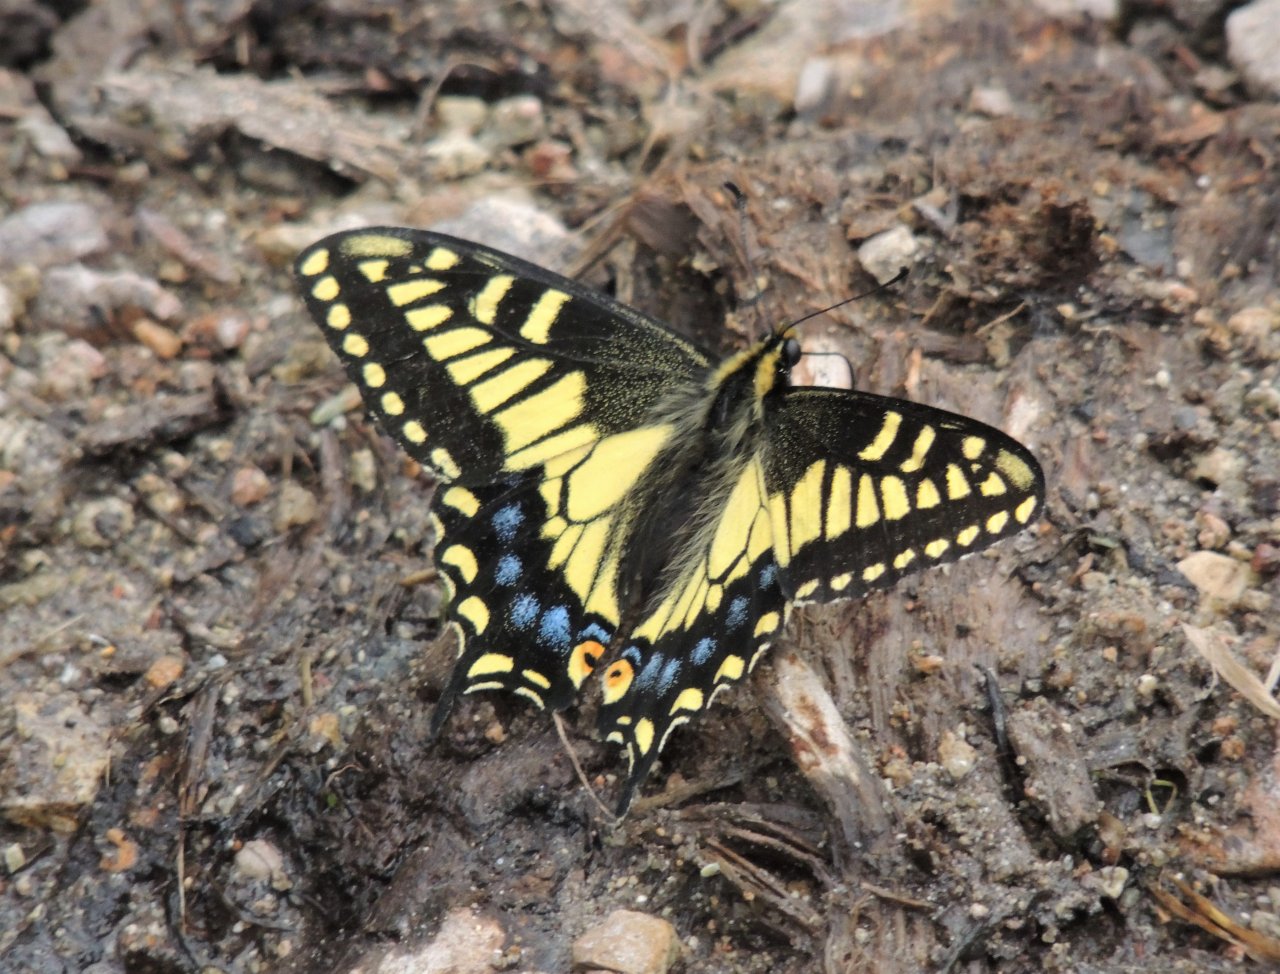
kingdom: Animalia
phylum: Arthropoda
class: Insecta
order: Lepidoptera
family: Papilionidae
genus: Papilio
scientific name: Papilio zelicaon
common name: Anise Swallowtail
